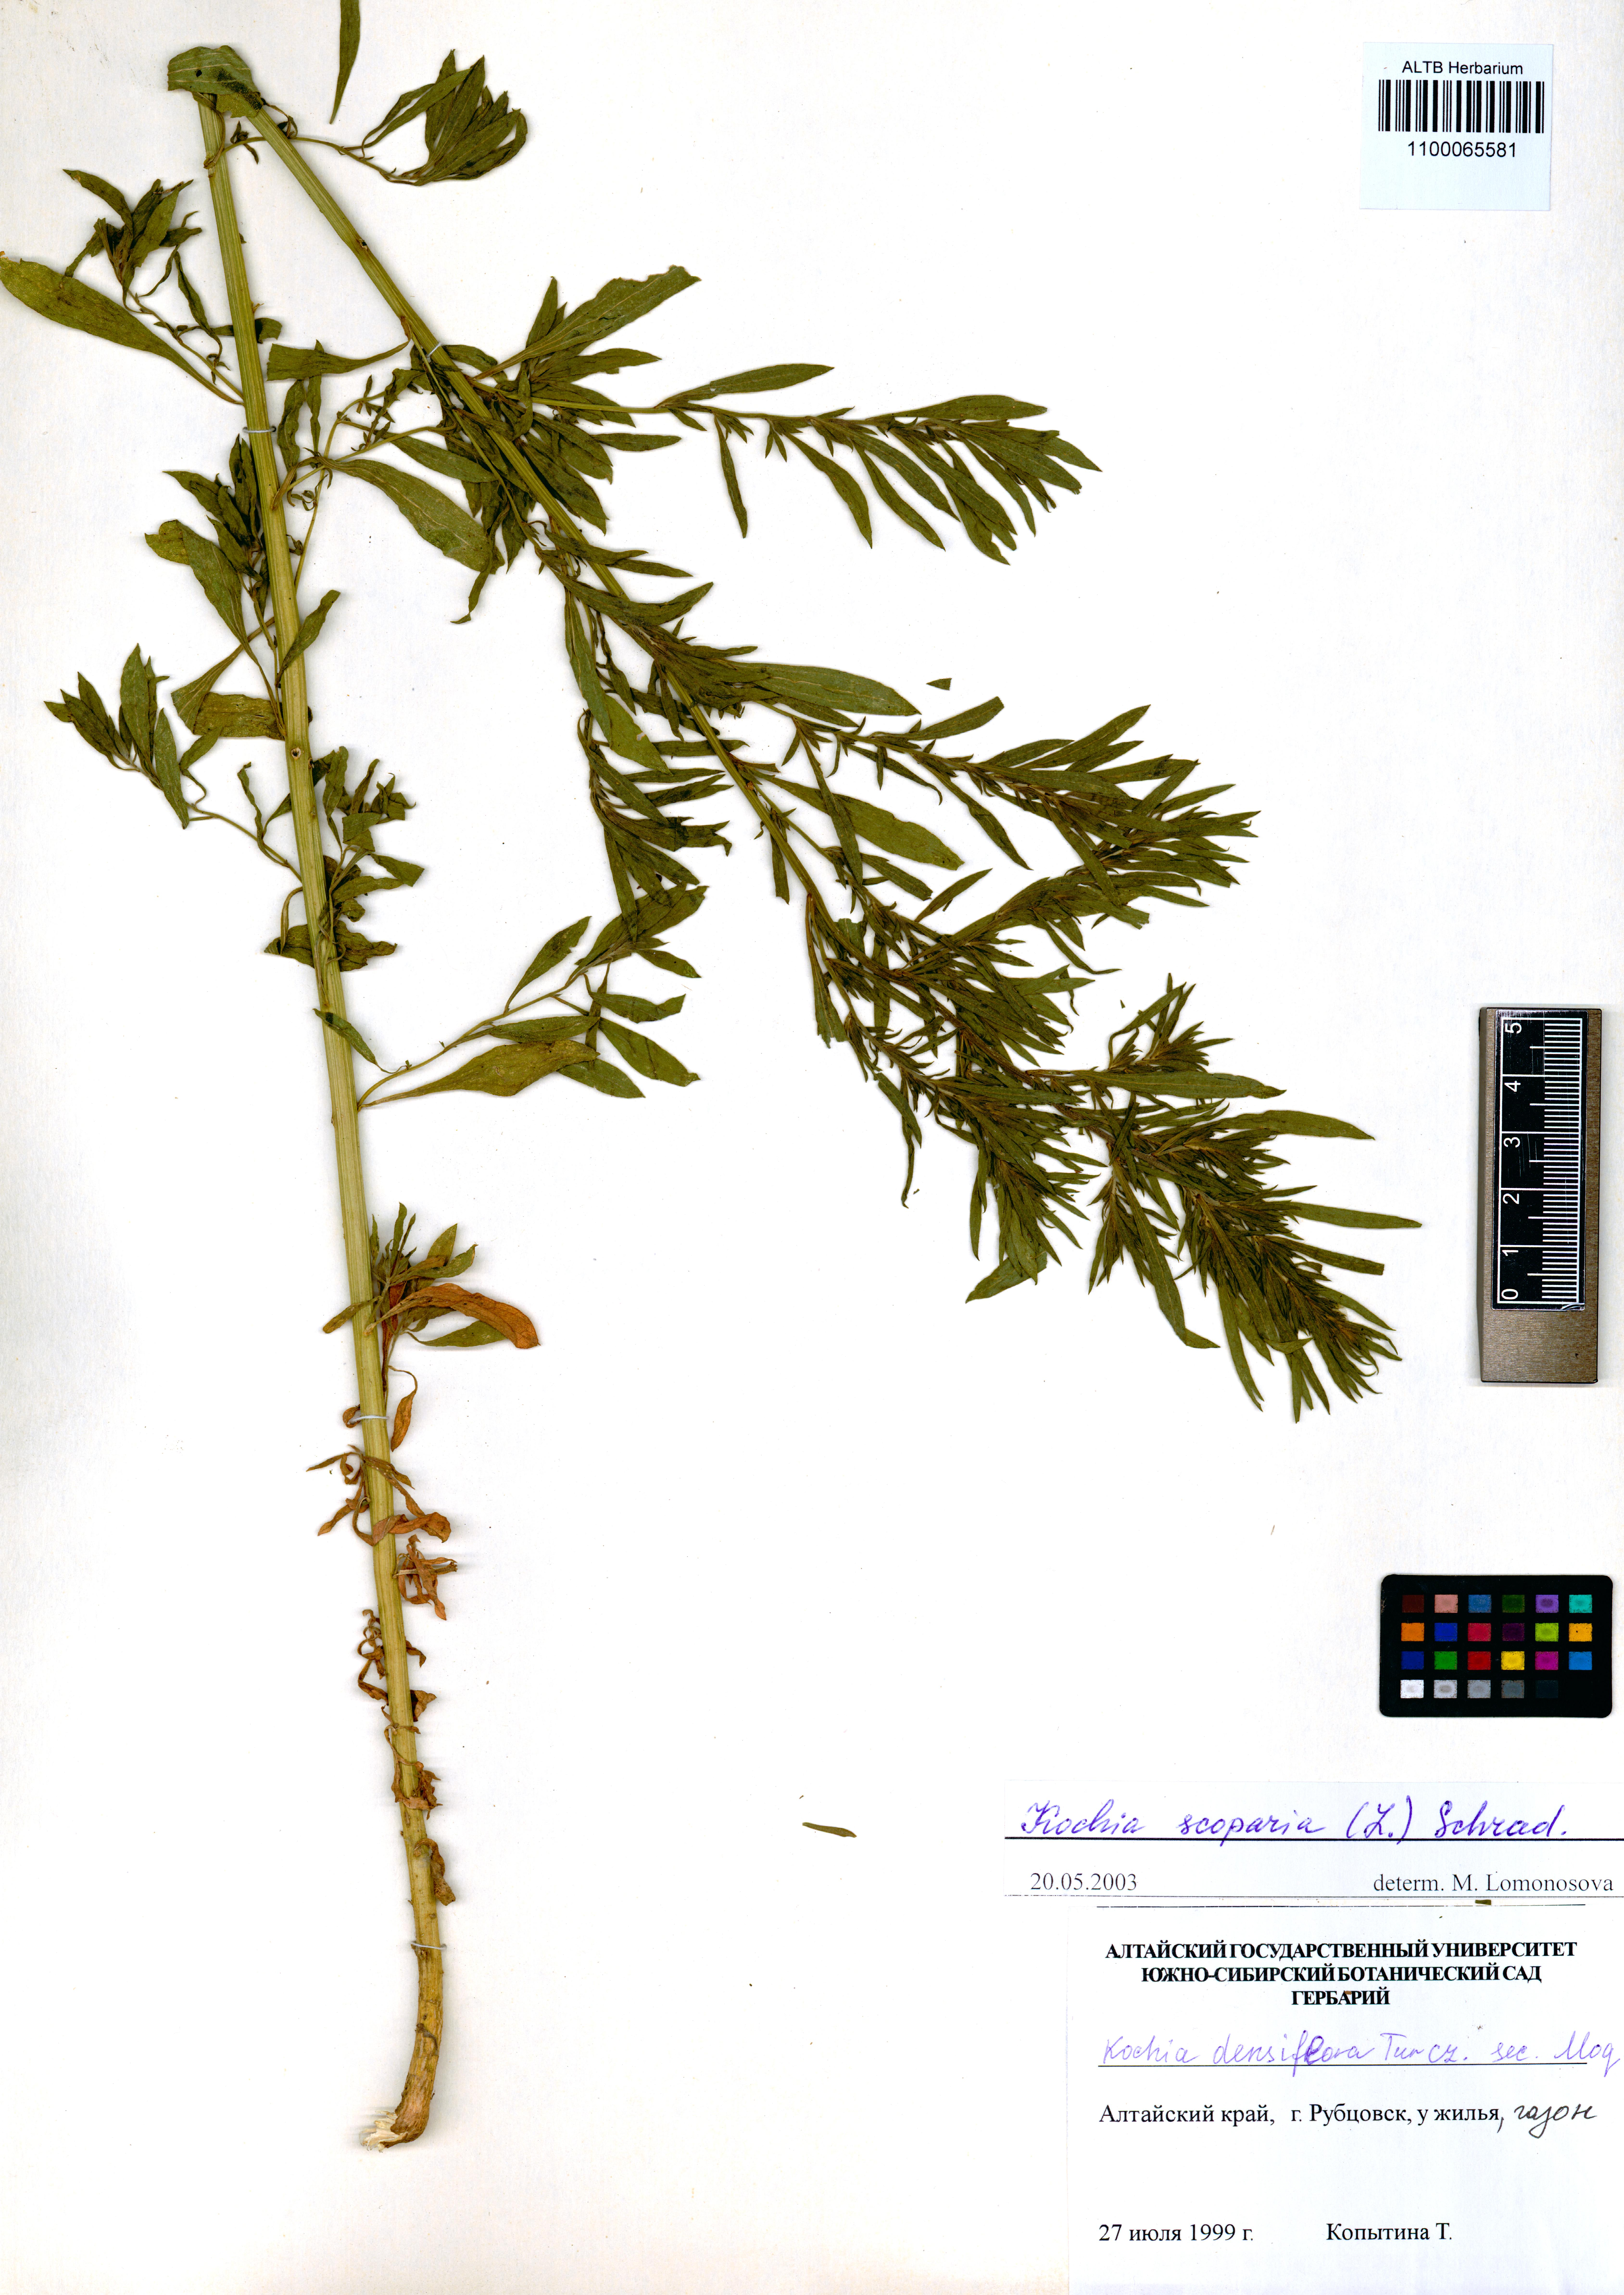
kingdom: Plantae
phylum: Tracheophyta
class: Magnoliopsida
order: Caryophyllales
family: Amaranthaceae
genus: Bassia
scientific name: Bassia scoparia
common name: Belvedere
